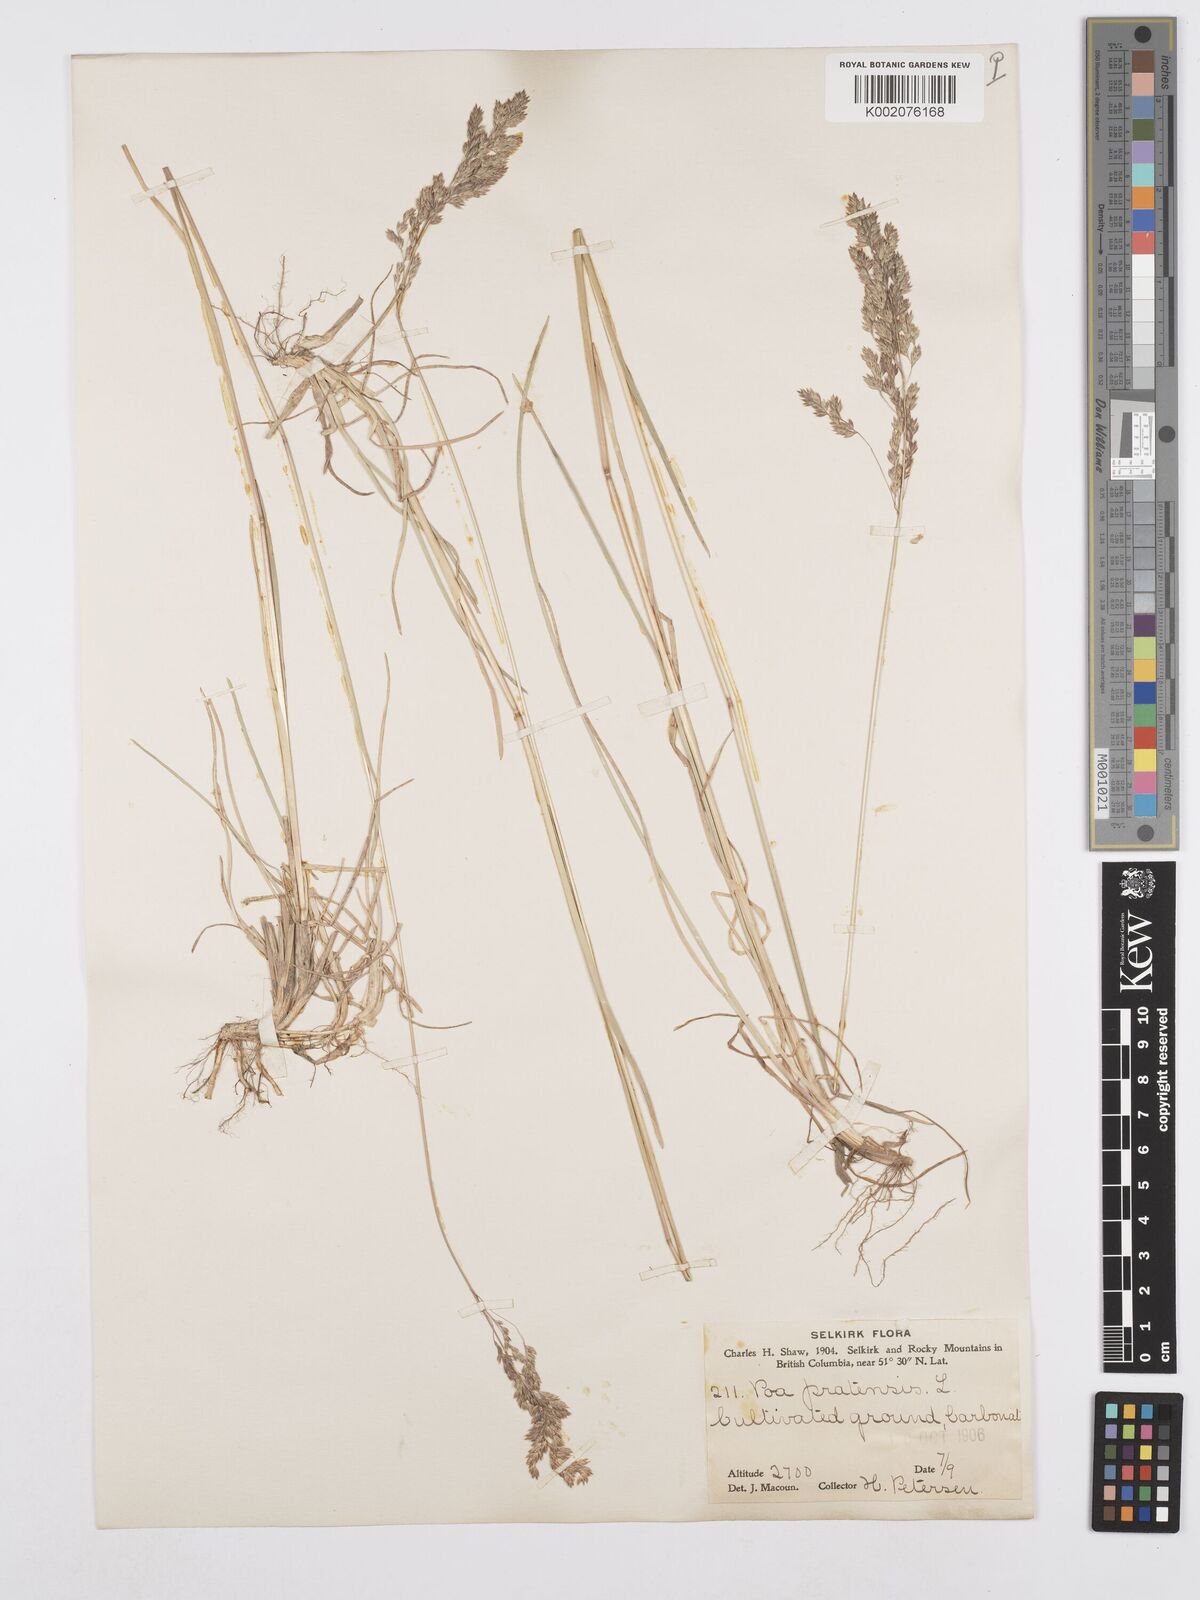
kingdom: Plantae
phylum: Tracheophyta
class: Liliopsida
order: Poales
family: Poaceae
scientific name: Poaceae
